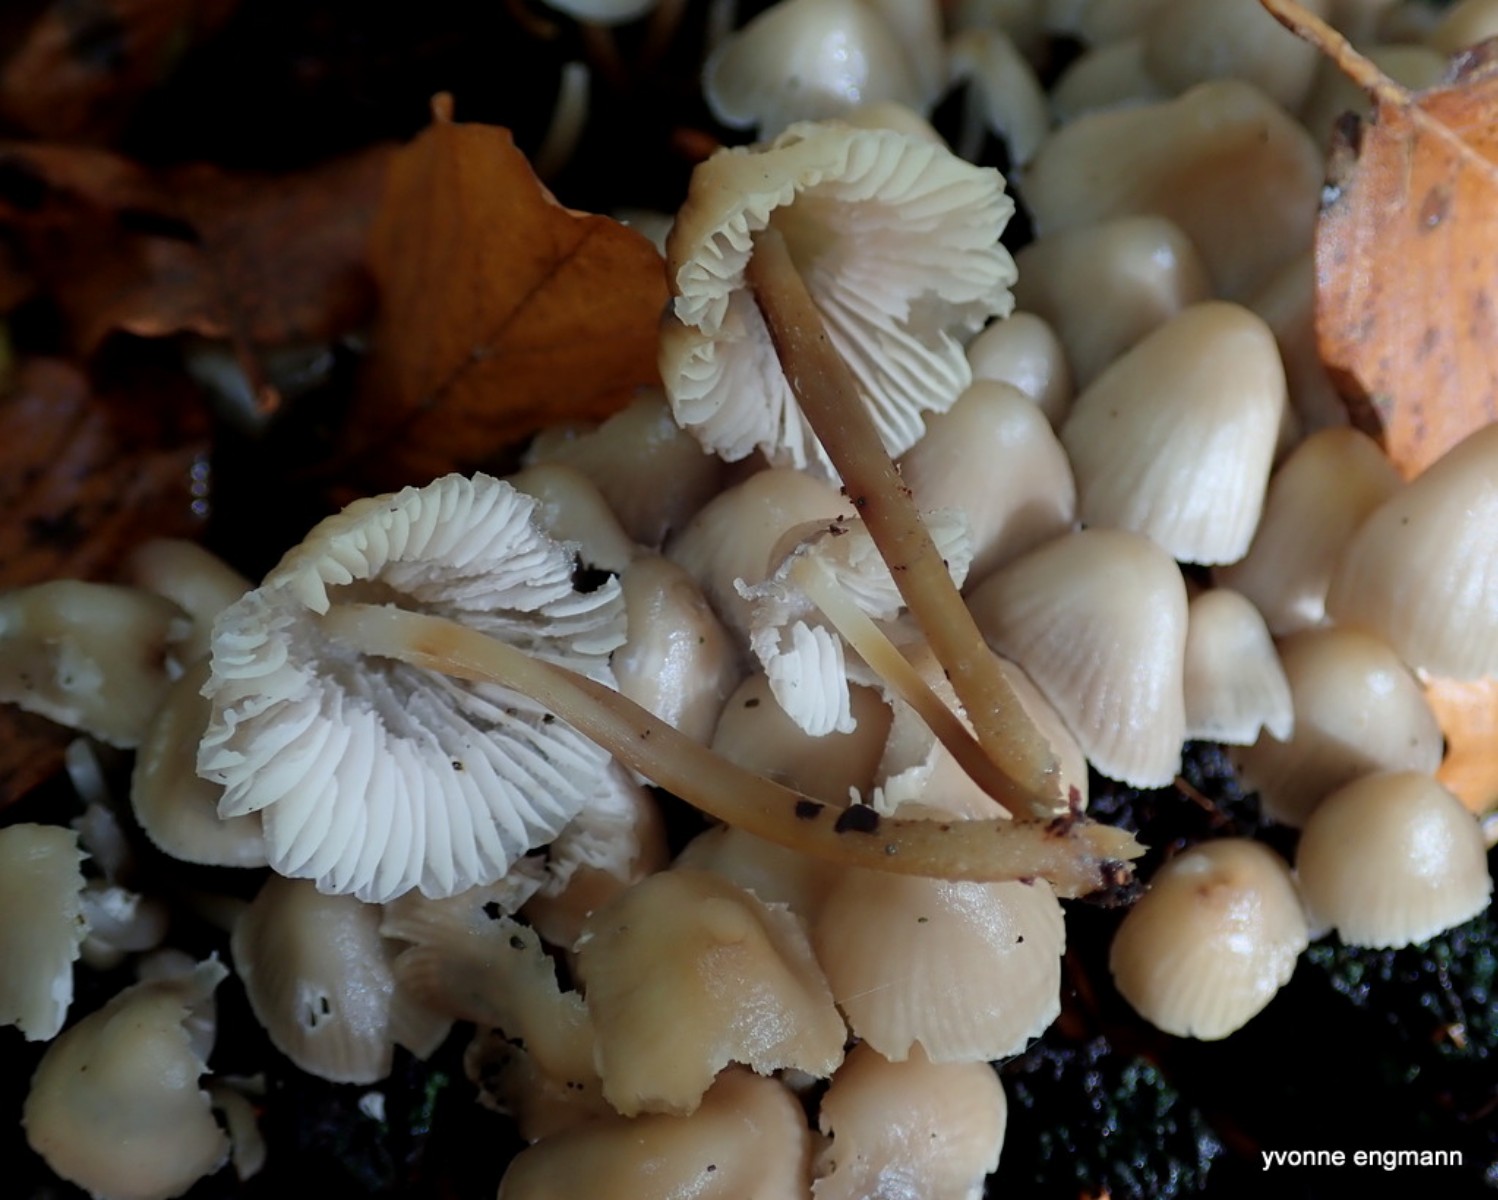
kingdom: Fungi
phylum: Basidiomycota
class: Agaricomycetes
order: Agaricales
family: Mycenaceae
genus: Mycena
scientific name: Mycena inclinata
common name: nikkende huesvamp
